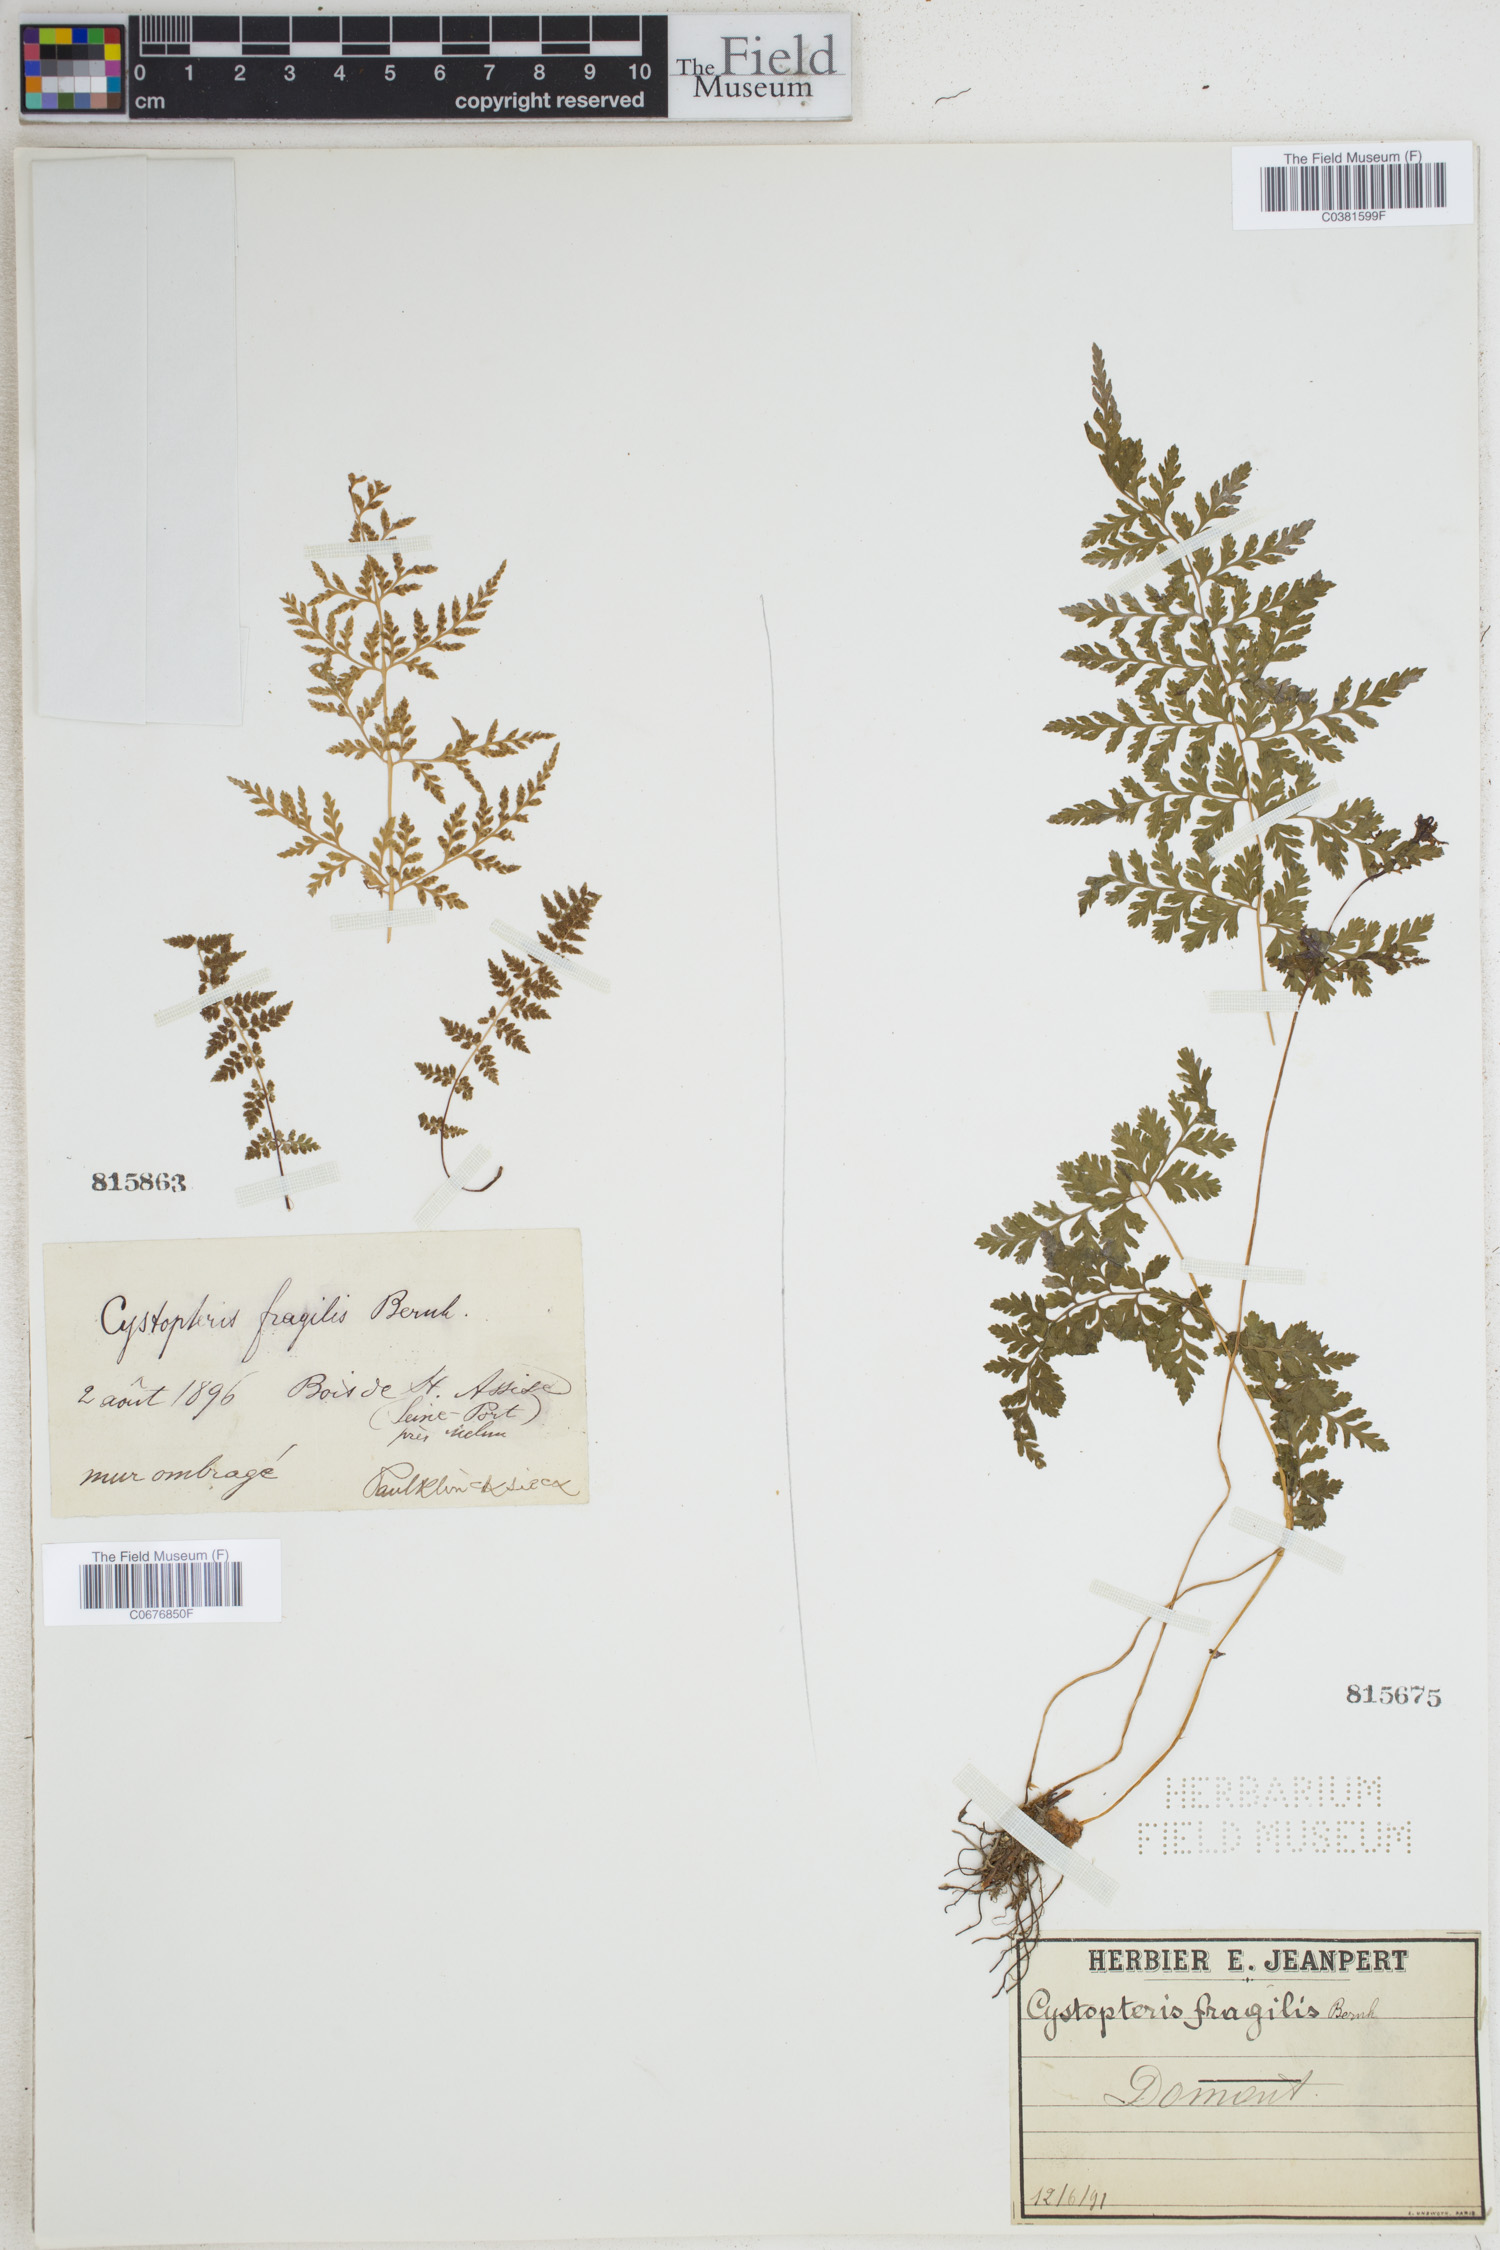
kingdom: Plantae
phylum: Tracheophyta
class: Polypodiopsida
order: Polypodiales
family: Cystopteridaceae
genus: Cystopteris
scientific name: Cystopteris fragilis
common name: Brittle bladder fern
